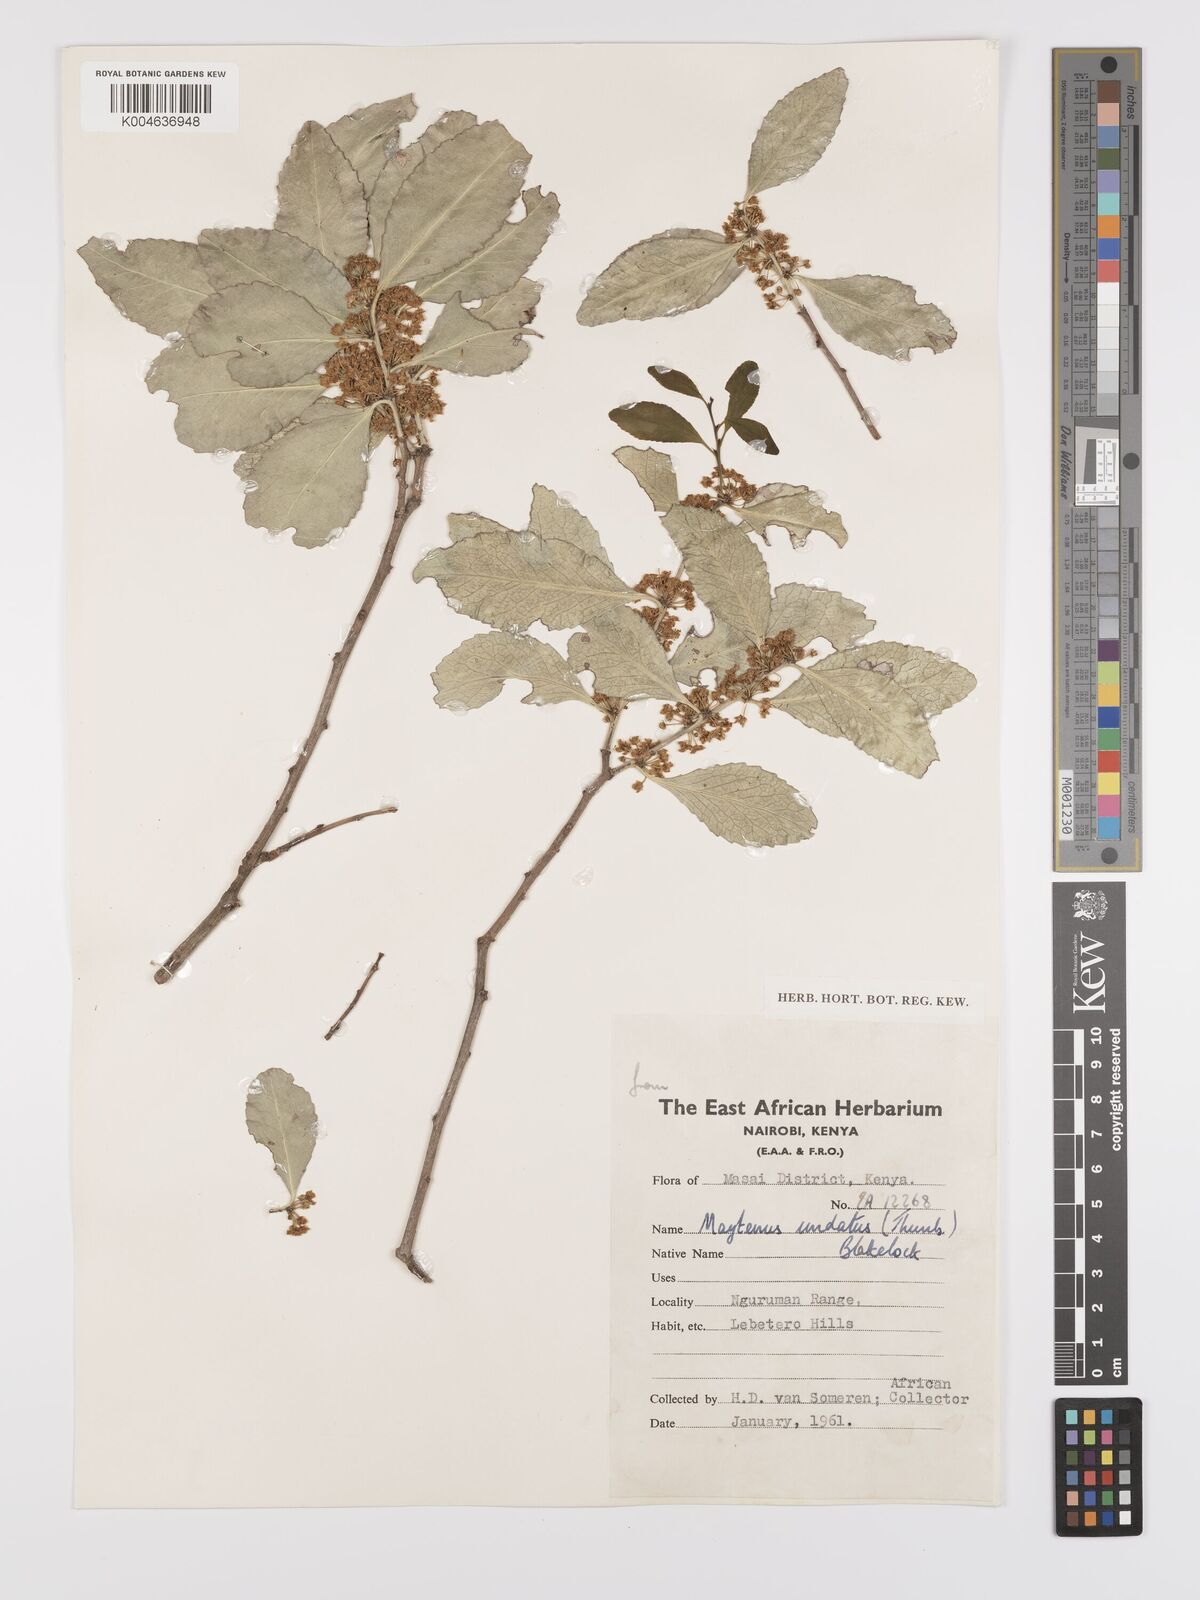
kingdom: Plantae
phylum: Tracheophyta
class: Magnoliopsida
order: Celastrales
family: Celastraceae
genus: Gymnosporia
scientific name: Gymnosporia undata
